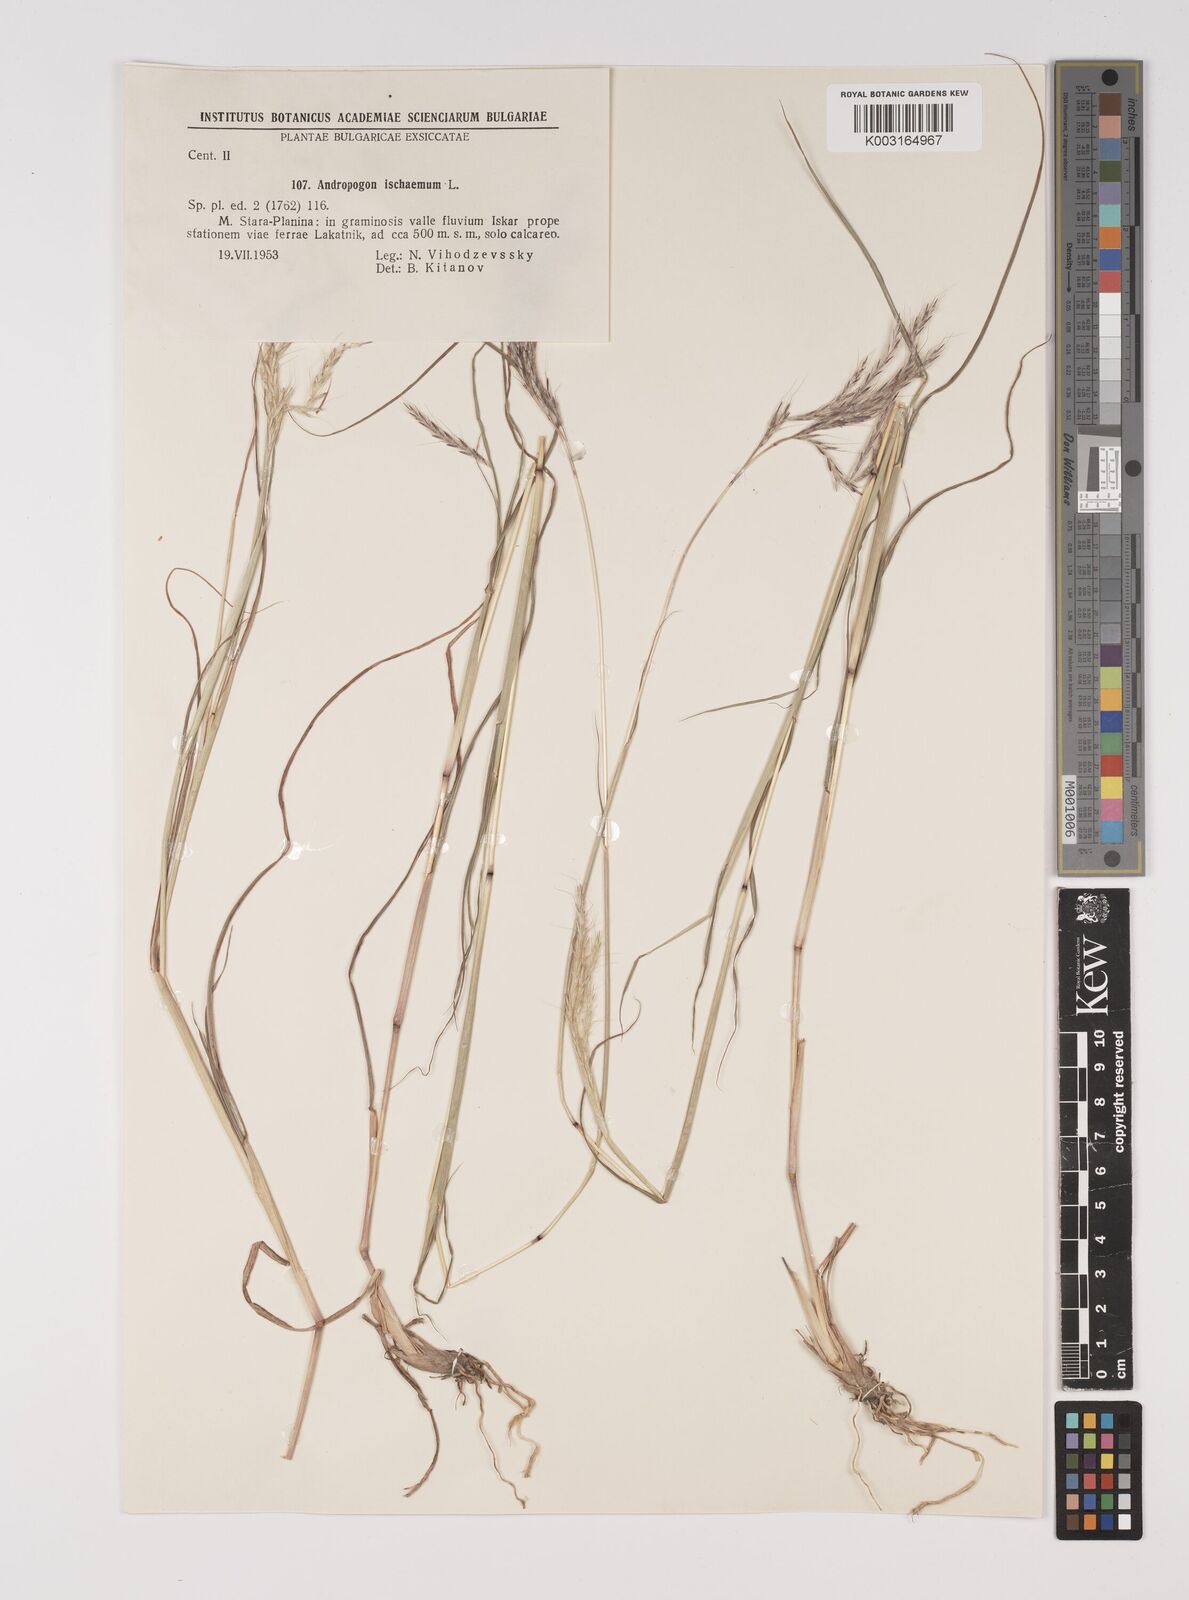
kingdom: Plantae
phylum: Tracheophyta
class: Liliopsida
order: Poales
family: Poaceae
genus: Bothriochloa
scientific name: Bothriochloa ischaemum
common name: Yellow bluestem
